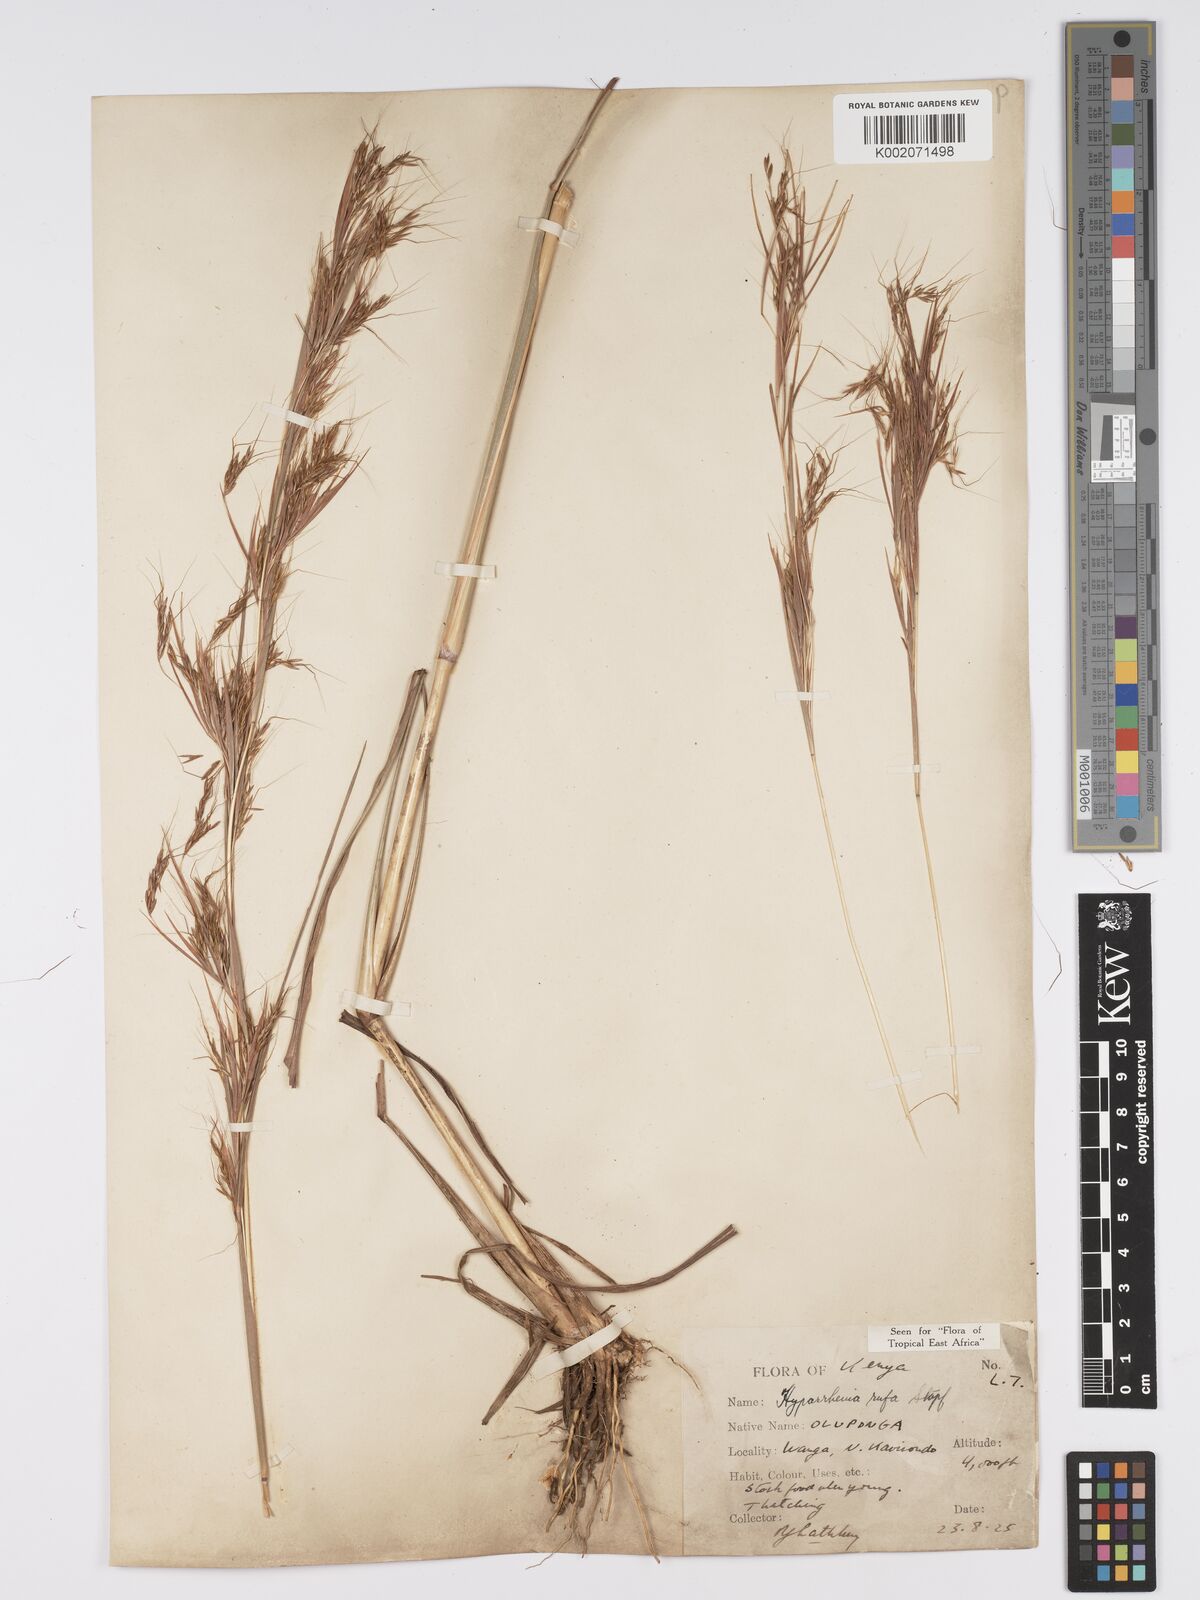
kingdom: Plantae
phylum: Tracheophyta
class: Liliopsida
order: Poales
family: Poaceae
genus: Hyparrhenia
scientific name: Hyparrhenia rufa
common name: Jaraguagrass
